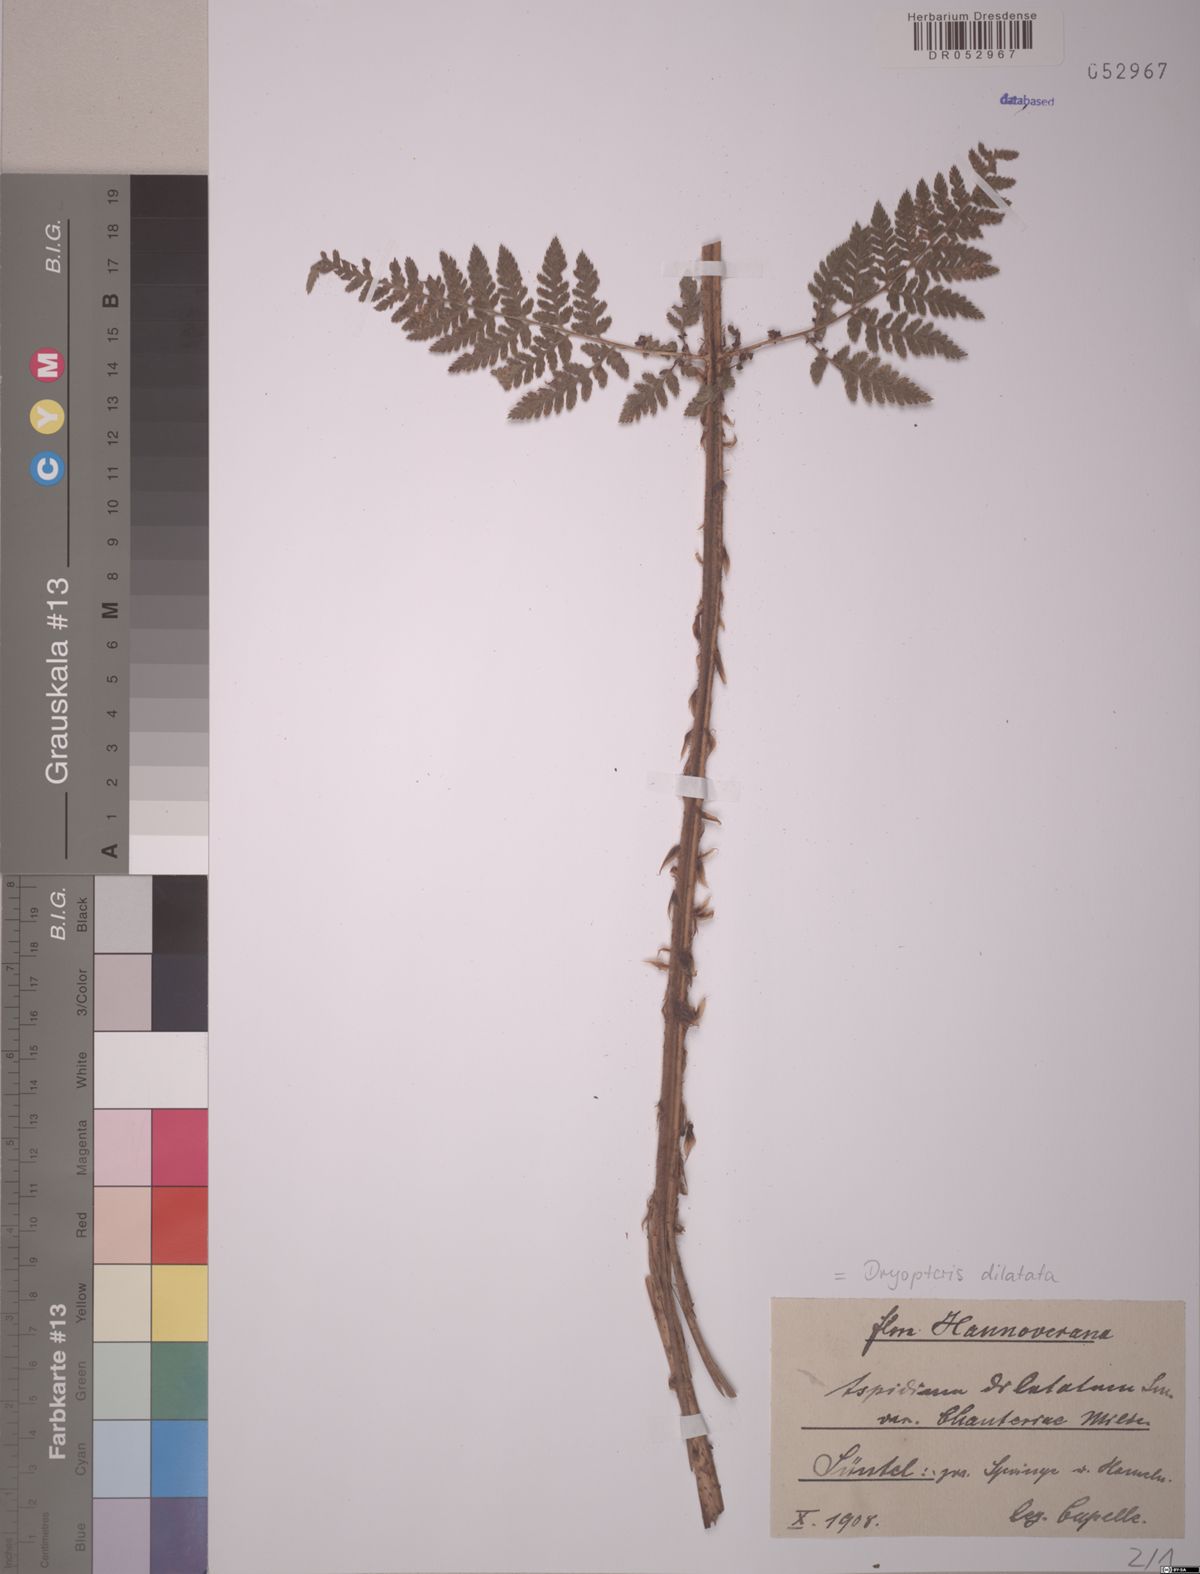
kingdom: Plantae
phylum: Tracheophyta
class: Polypodiopsida
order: Polypodiales
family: Dryopteridaceae
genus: Dryopteris
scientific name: Dryopteris dilatata
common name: Broad buckler-fern
